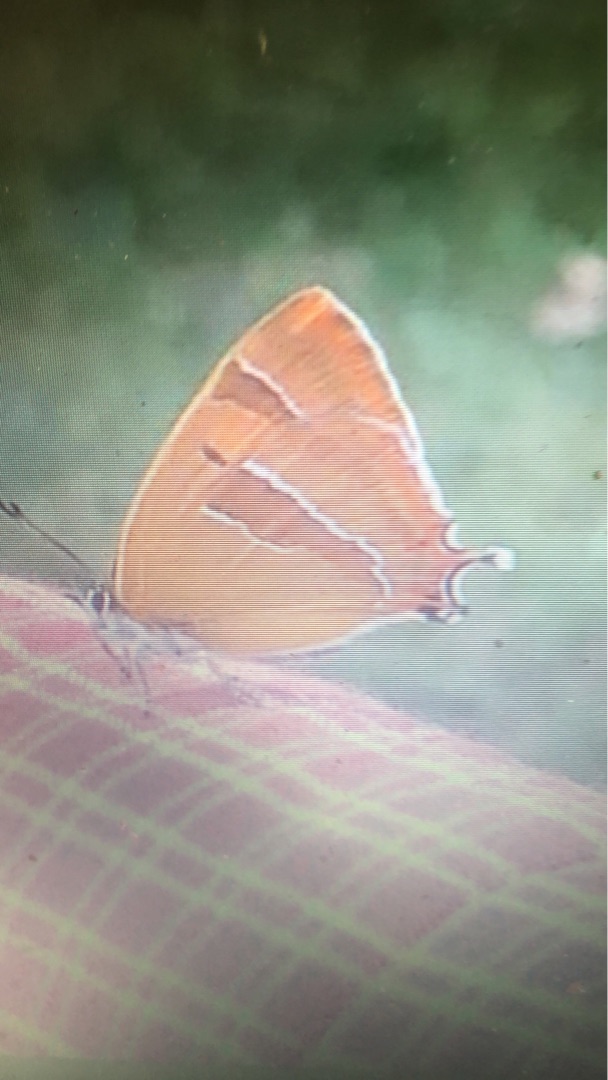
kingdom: Animalia
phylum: Arthropoda
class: Insecta
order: Lepidoptera
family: Lycaenidae
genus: Thecla
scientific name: Thecla betulae
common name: Guldhale
